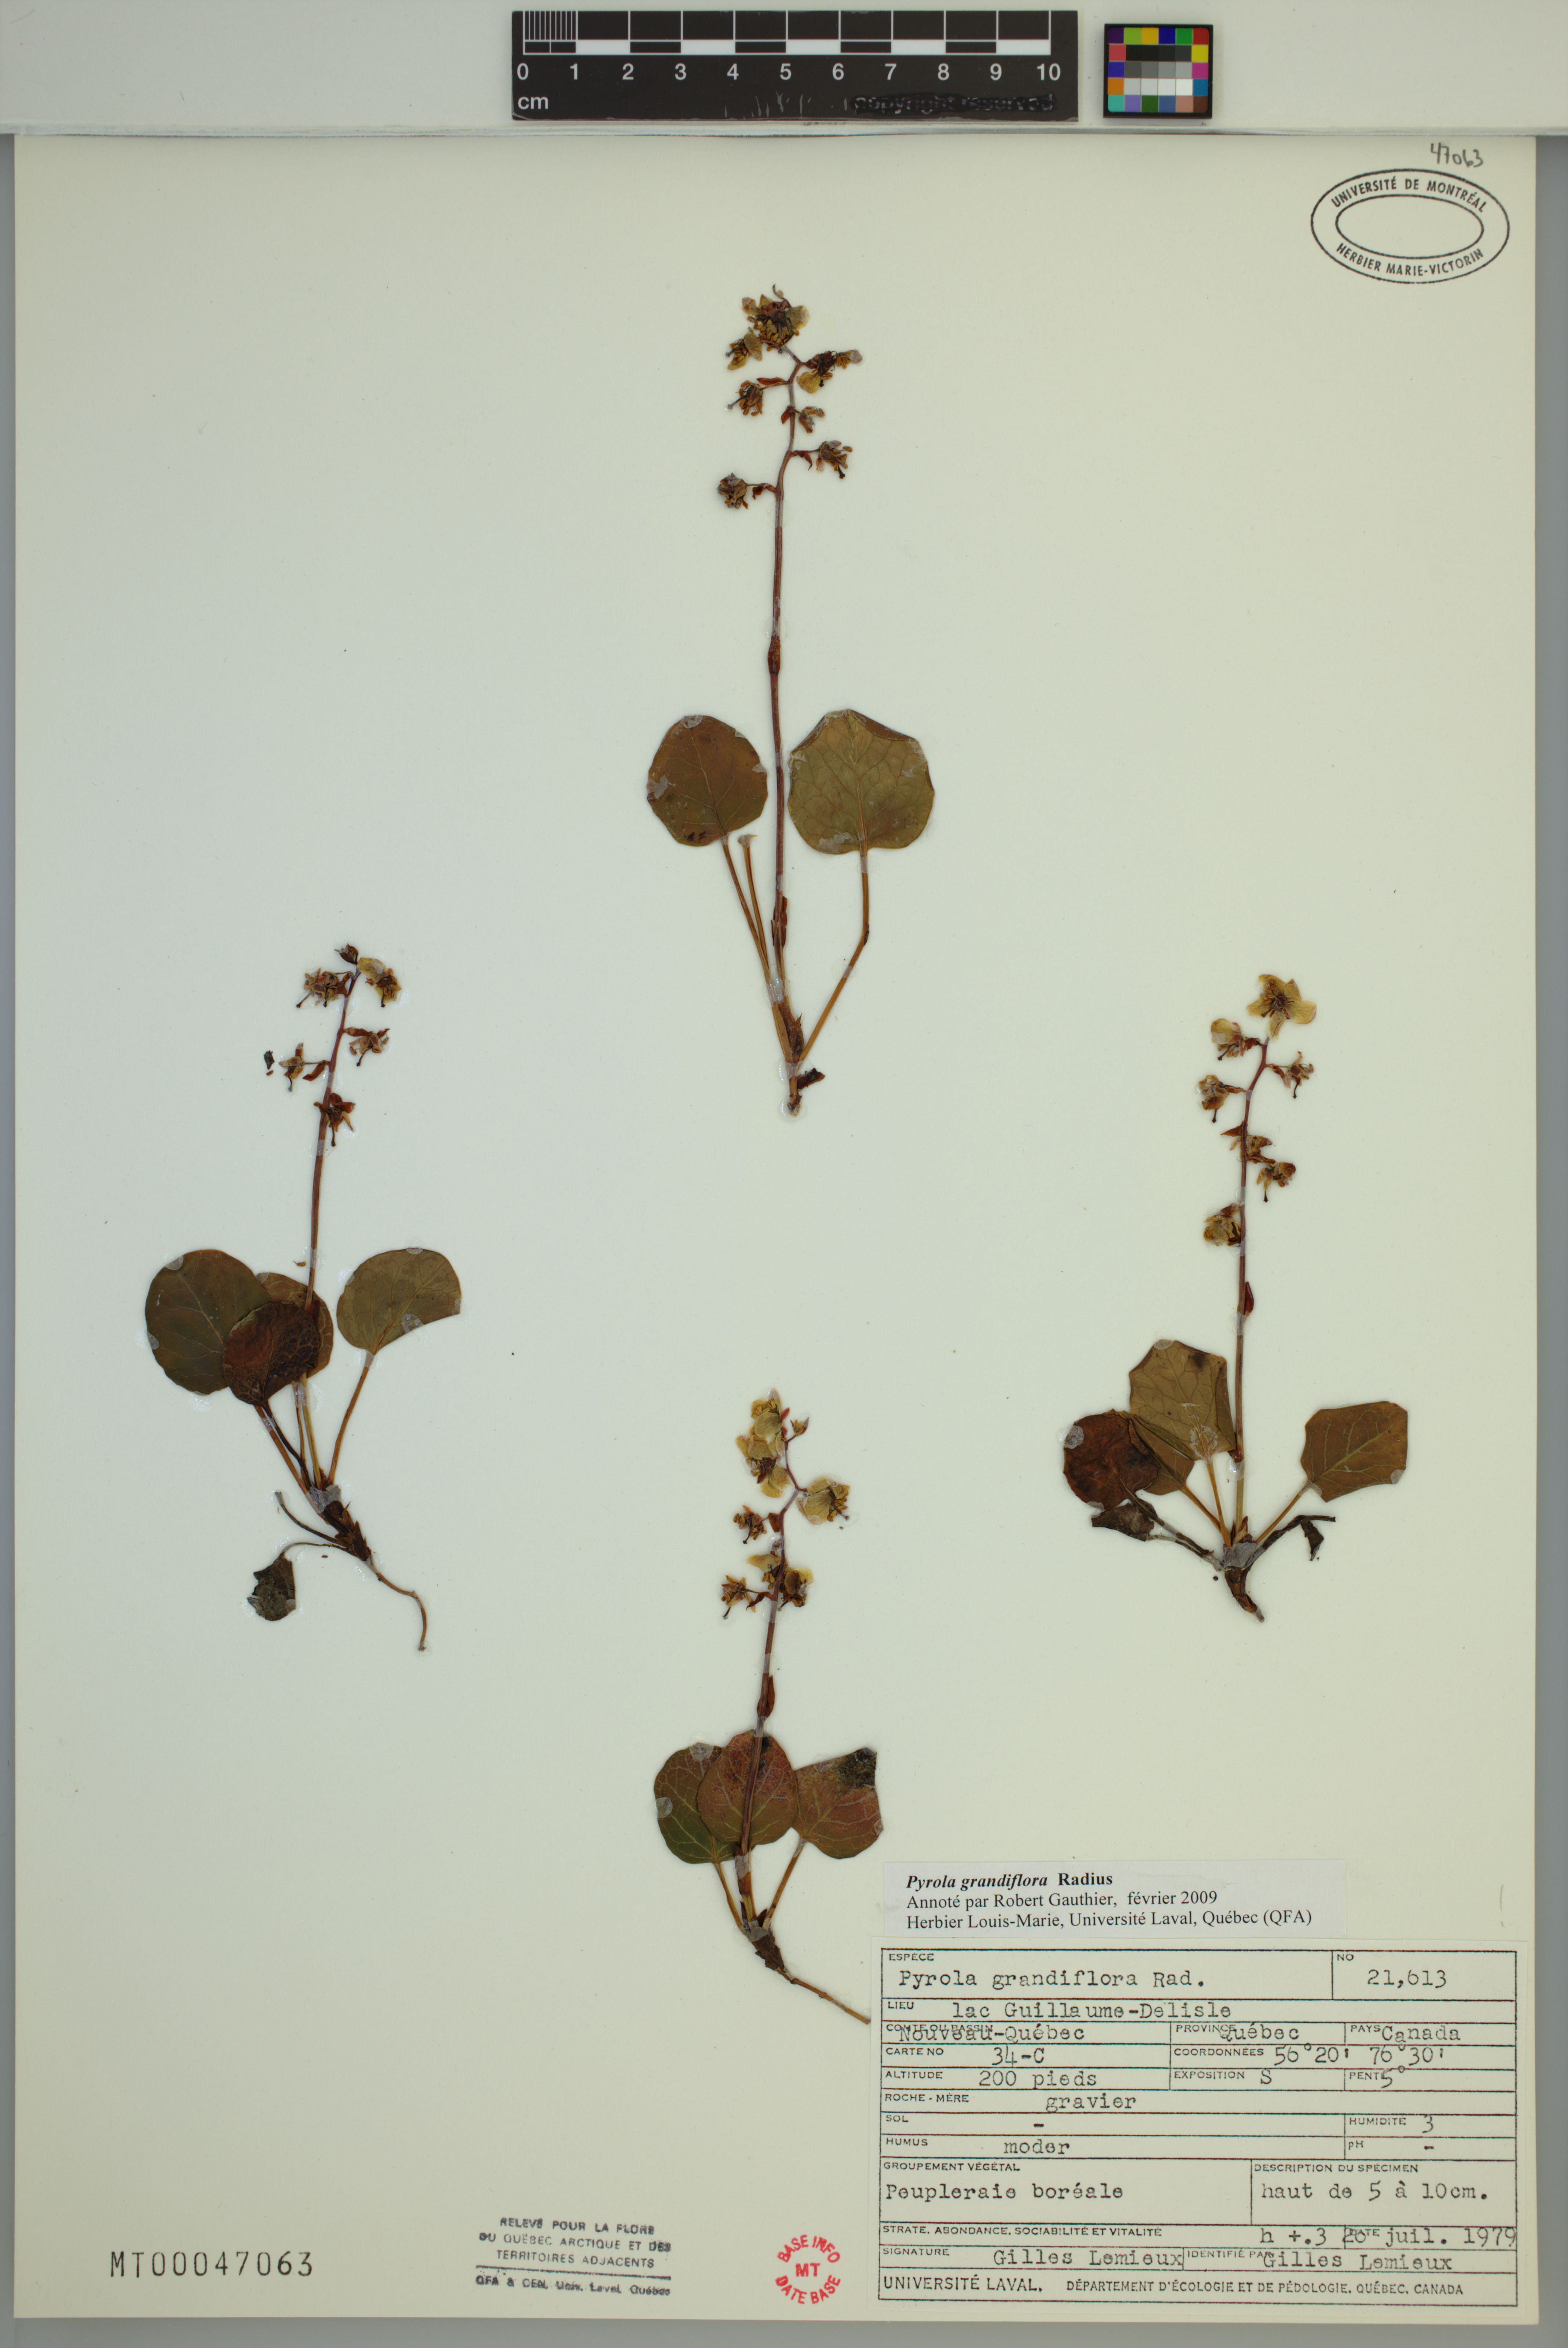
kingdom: Plantae
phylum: Tracheophyta
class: Magnoliopsida
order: Ericales
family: Ericaceae
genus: Pyrola
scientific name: Pyrola grandiflora
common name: Arctic pyrola
